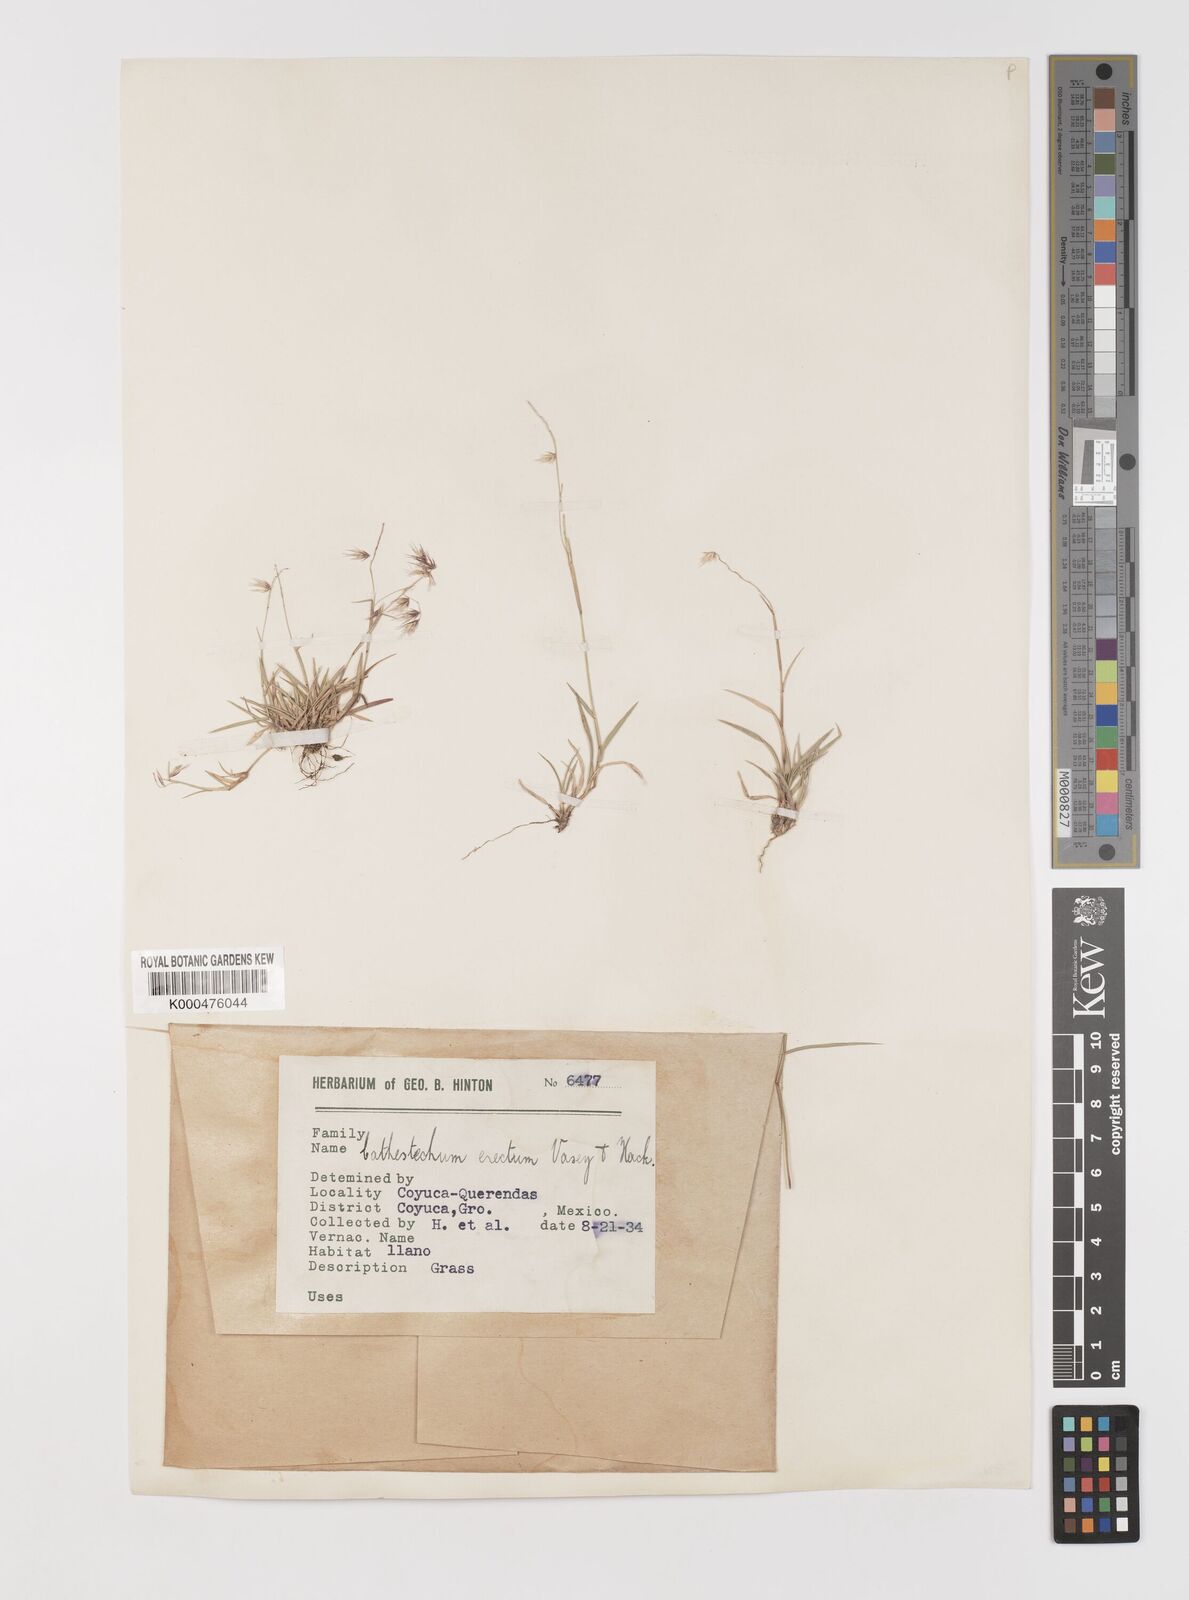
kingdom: Plantae
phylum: Tracheophyta
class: Liliopsida
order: Poales
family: Poaceae
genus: Bouteloua
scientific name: Bouteloua erecta
